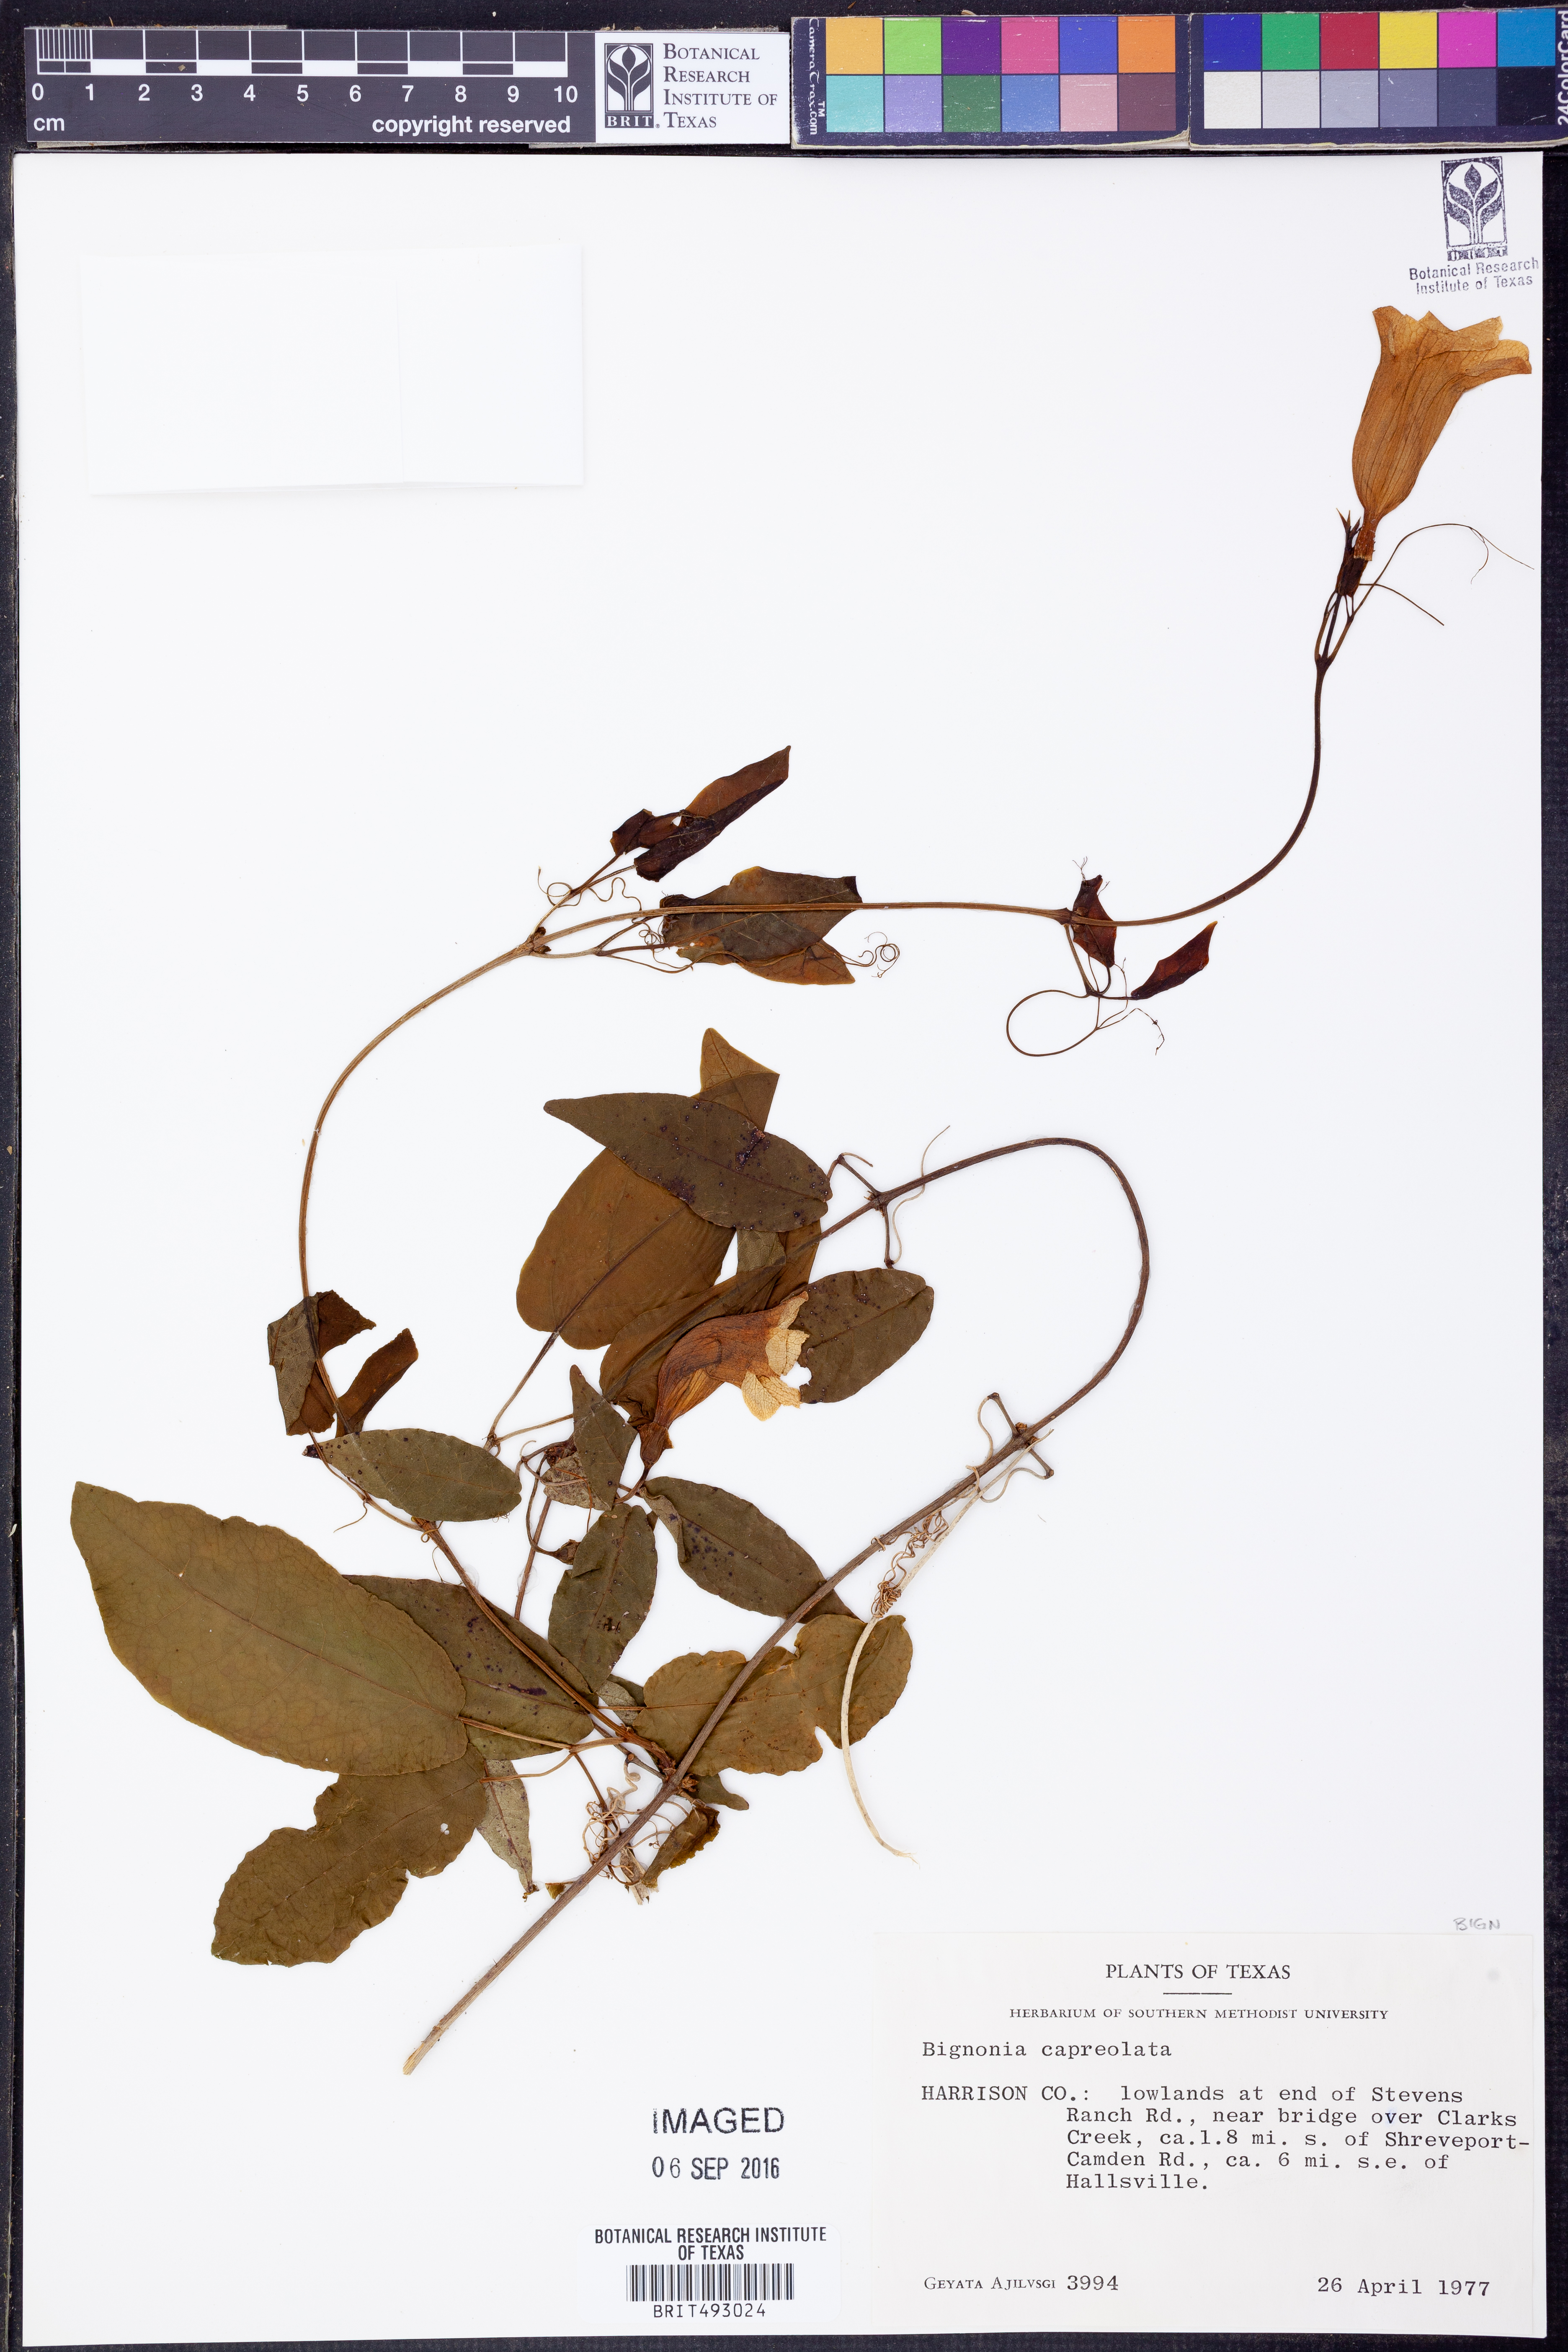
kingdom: Plantae
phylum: Tracheophyta
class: Magnoliopsida
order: Lamiales
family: Bignoniaceae
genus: Bignonia
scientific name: Bignonia capreolata
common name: Crossvine
